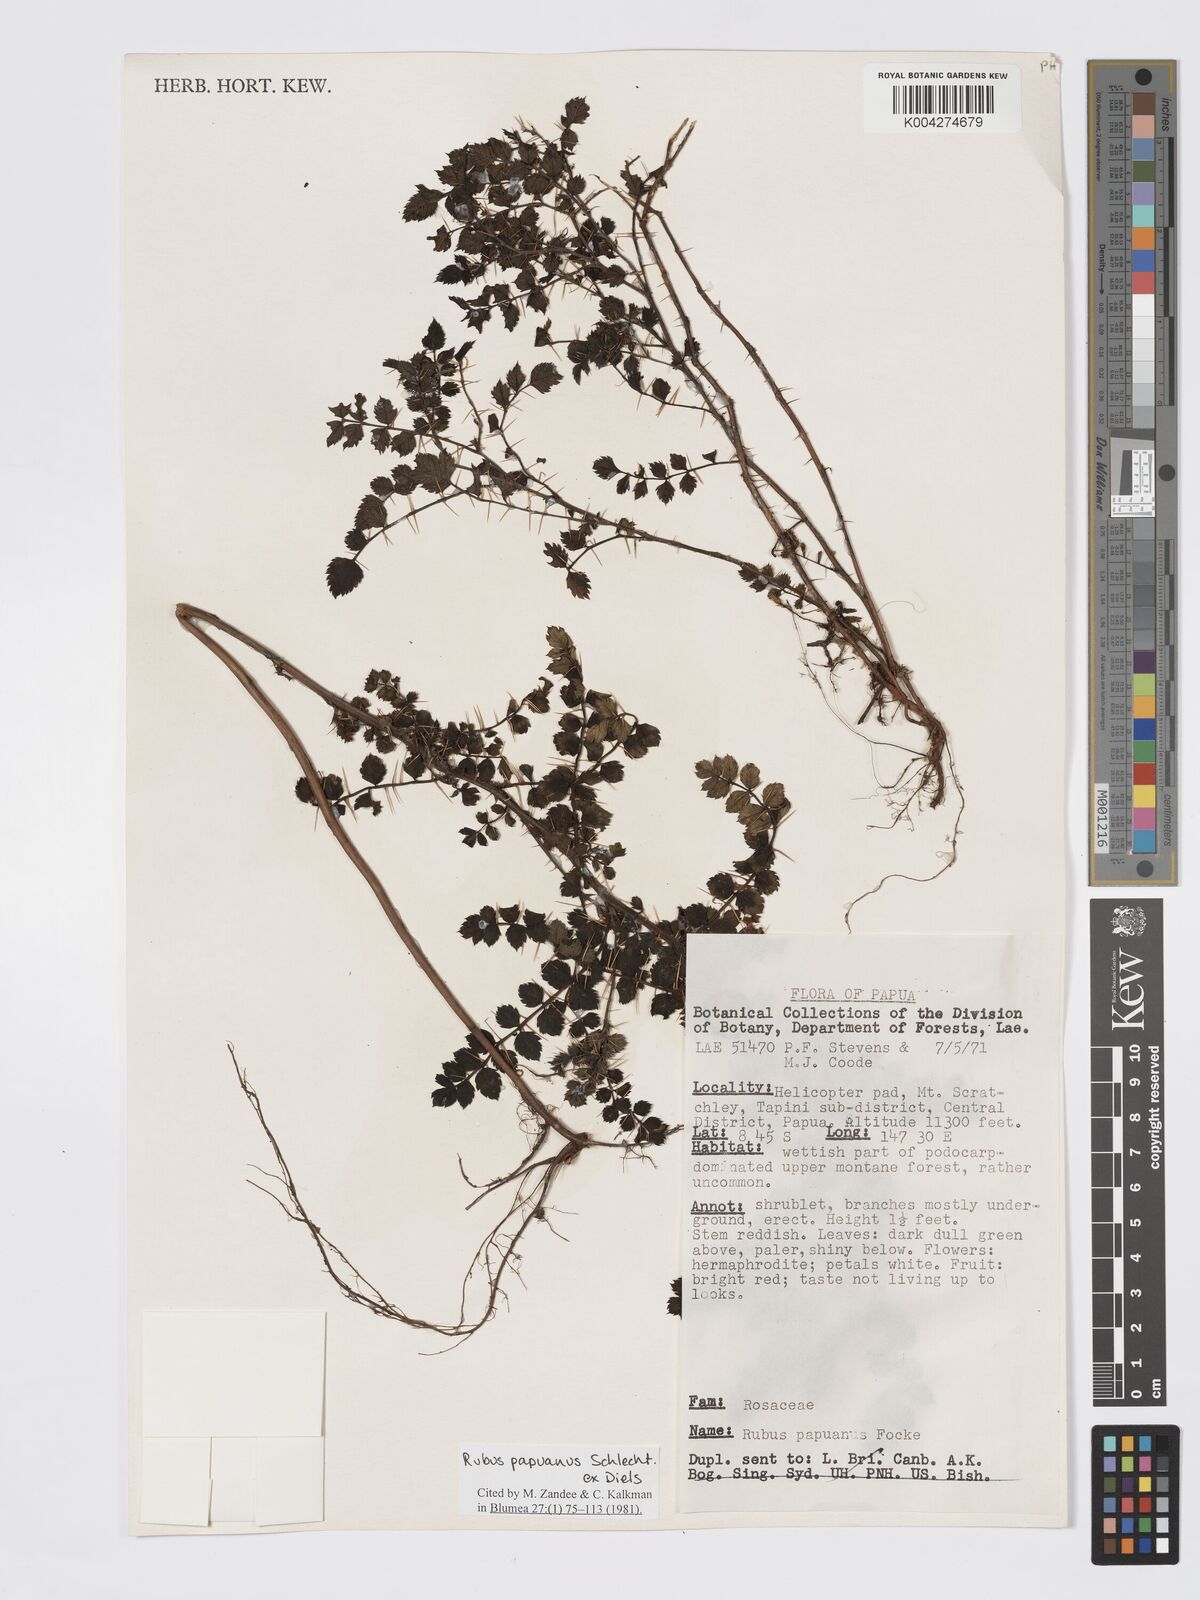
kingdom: Plantae
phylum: Tracheophyta
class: Magnoliopsida
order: Rosales
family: Rosaceae
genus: Rubus
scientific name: Rubus papuanus
